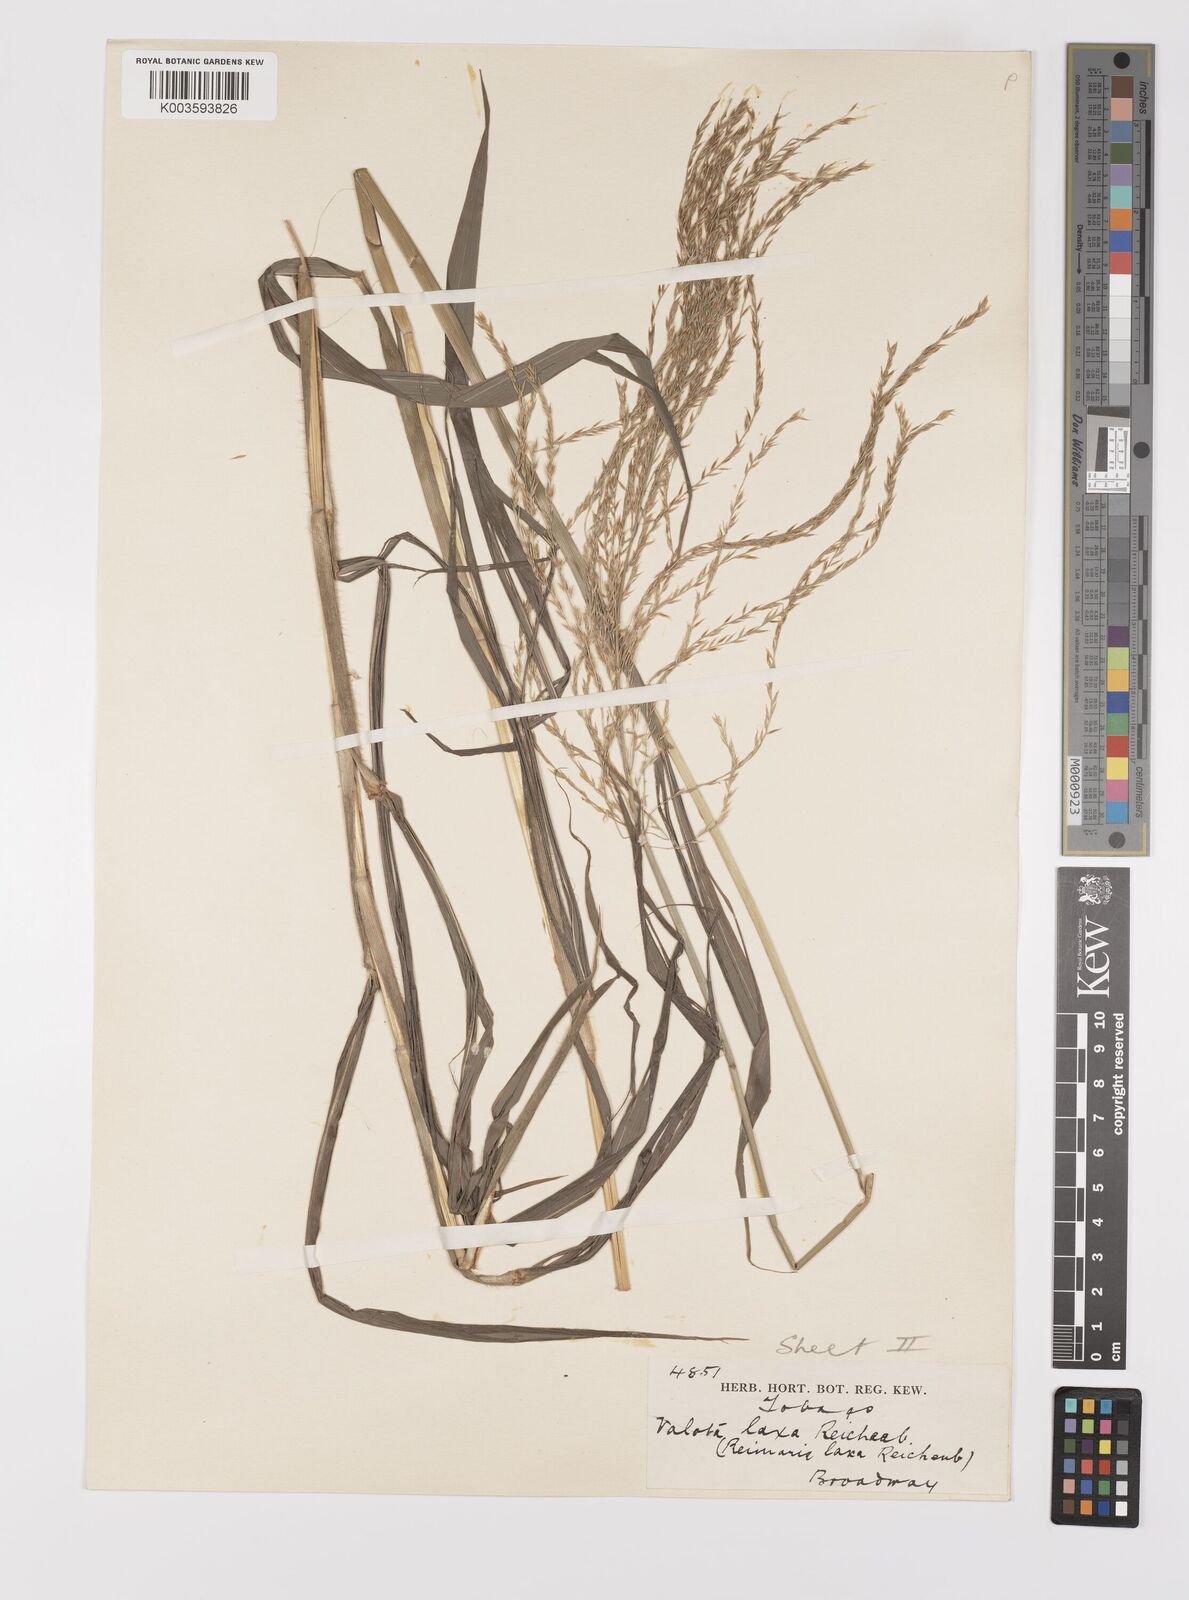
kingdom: Plantae
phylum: Tracheophyta
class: Liliopsida
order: Poales
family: Poaceae
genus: Digitaria
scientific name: Digitaria laxa
